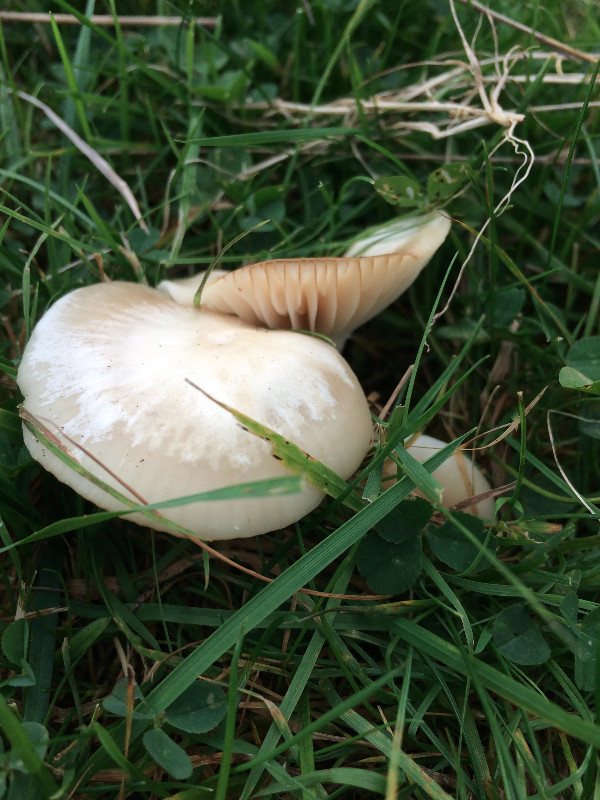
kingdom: Fungi
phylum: Basidiomycota
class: Agaricomycetes
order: Agaricales
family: Hygrophoraceae
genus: Cuphophyllus
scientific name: Cuphophyllus virgineus
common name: snehvid vokshat
